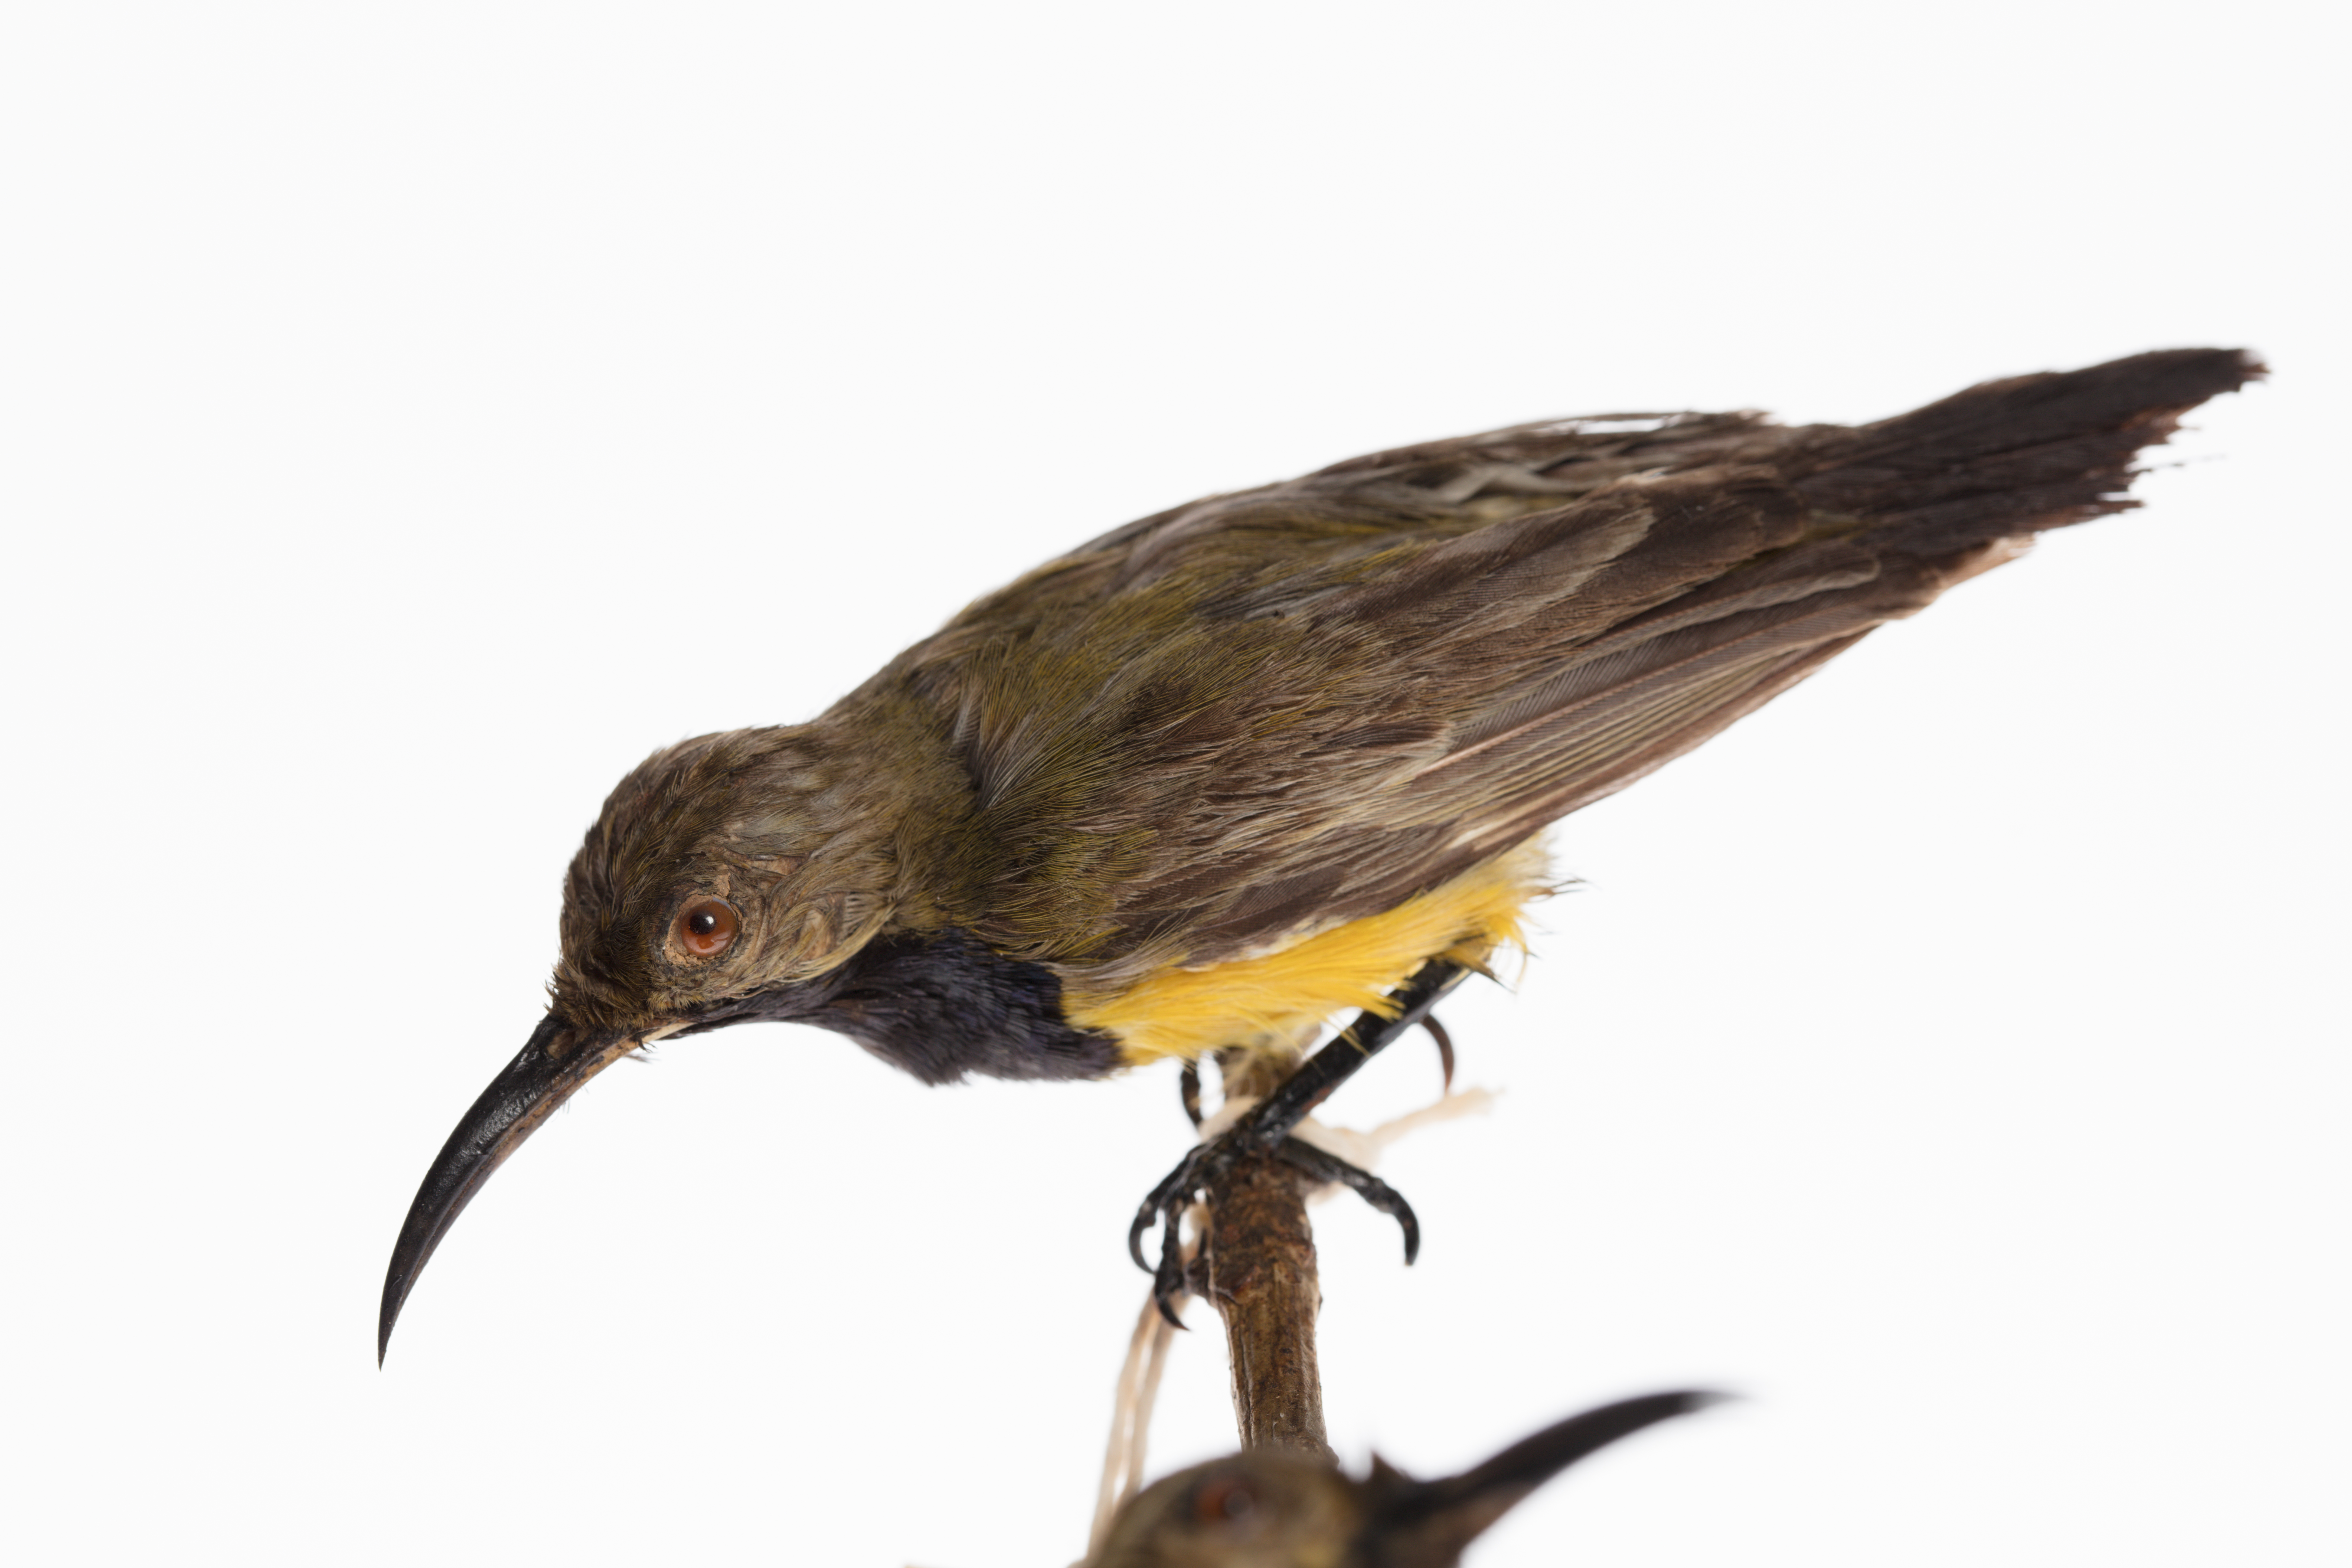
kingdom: Animalia
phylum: Chordata
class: Aves
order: Passeriformes
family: Nectariniidae
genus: Cinnyris
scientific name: Cinnyris jugularis
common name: Olive-backed sunbird
